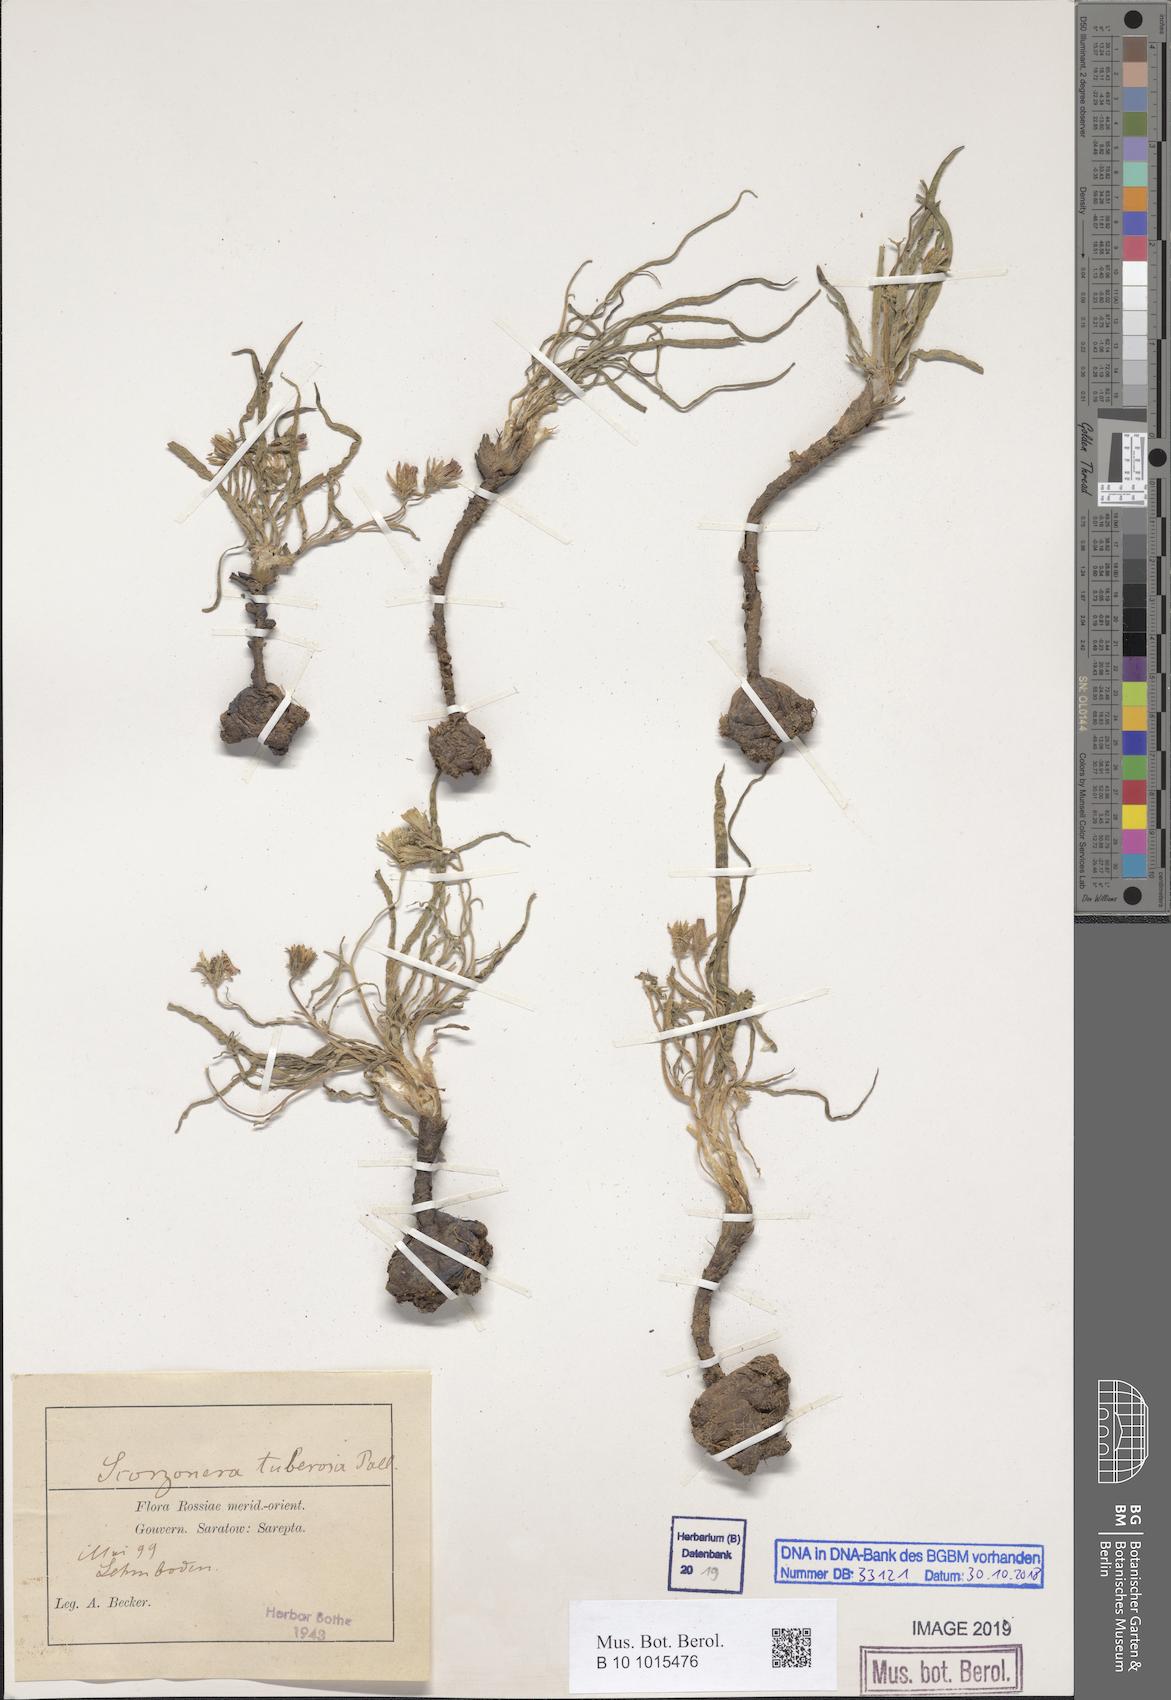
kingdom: Plantae
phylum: Tracheophyta
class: Magnoliopsida
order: Asterales
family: Asteraceae
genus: Gelasia
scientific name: Gelasia tuberosa
